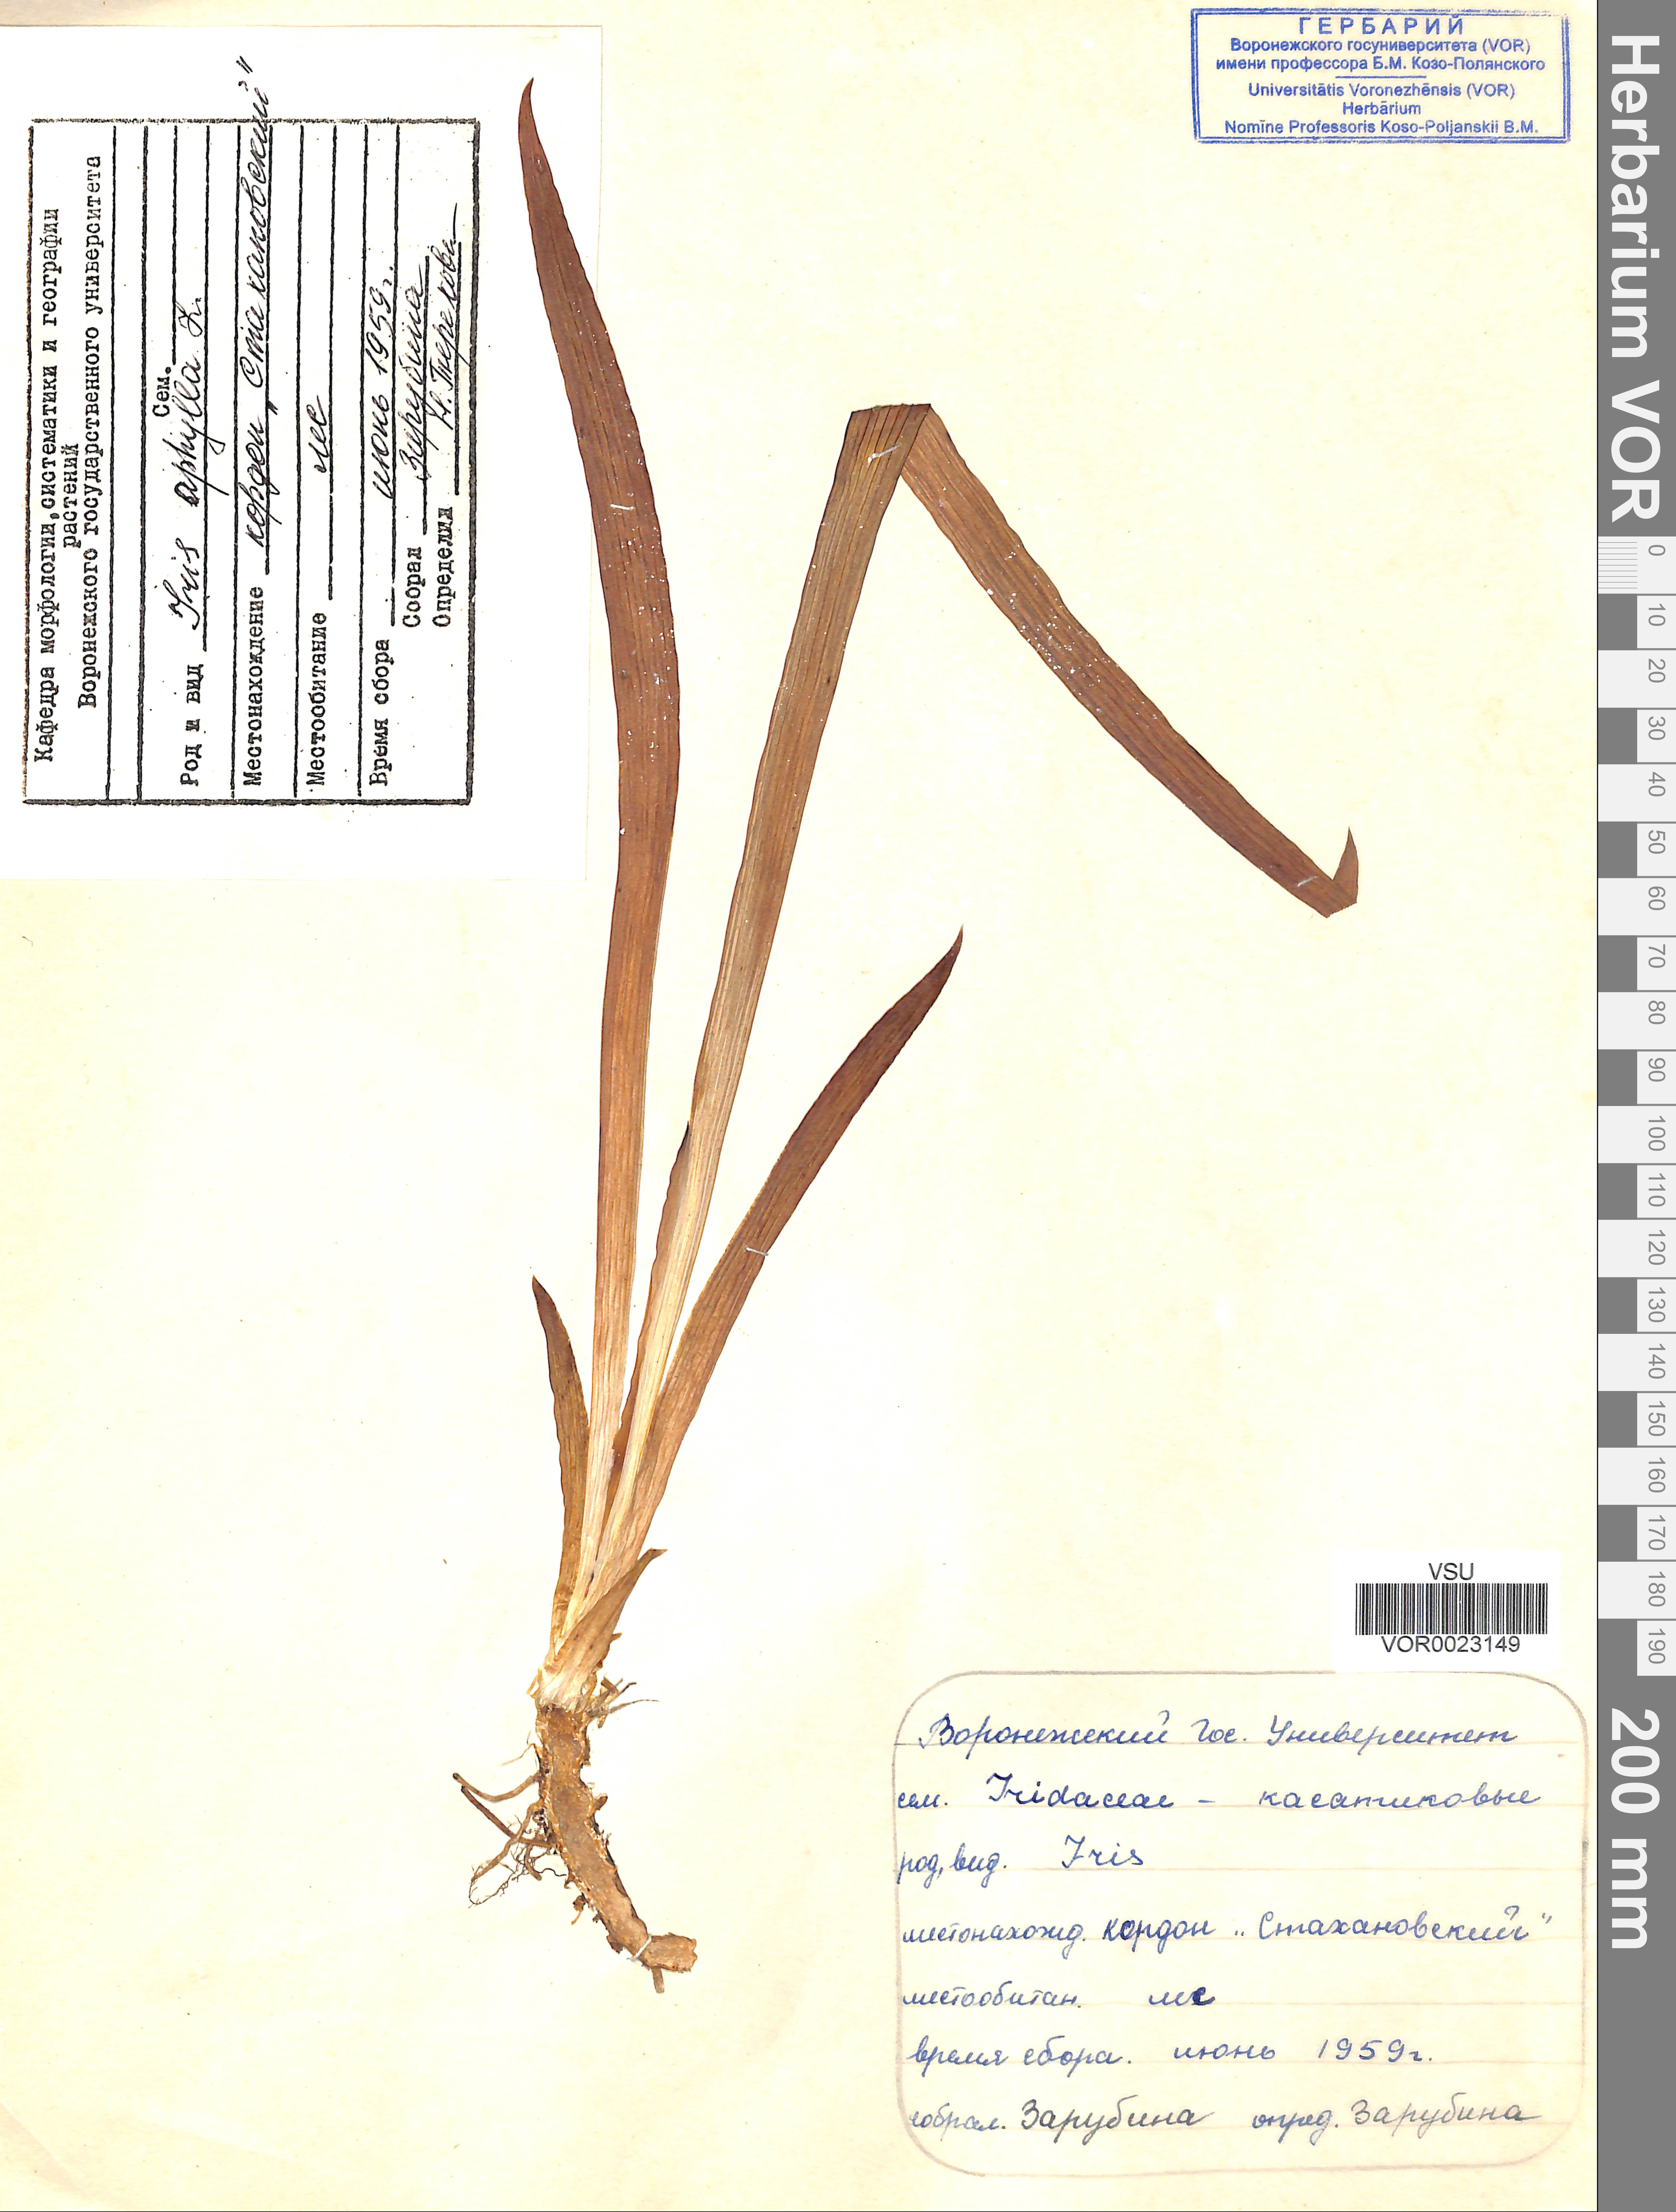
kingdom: Plantae
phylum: Tracheophyta
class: Liliopsida
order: Asparagales
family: Iridaceae
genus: Iris
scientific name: Iris aphylla
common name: Stool iris
